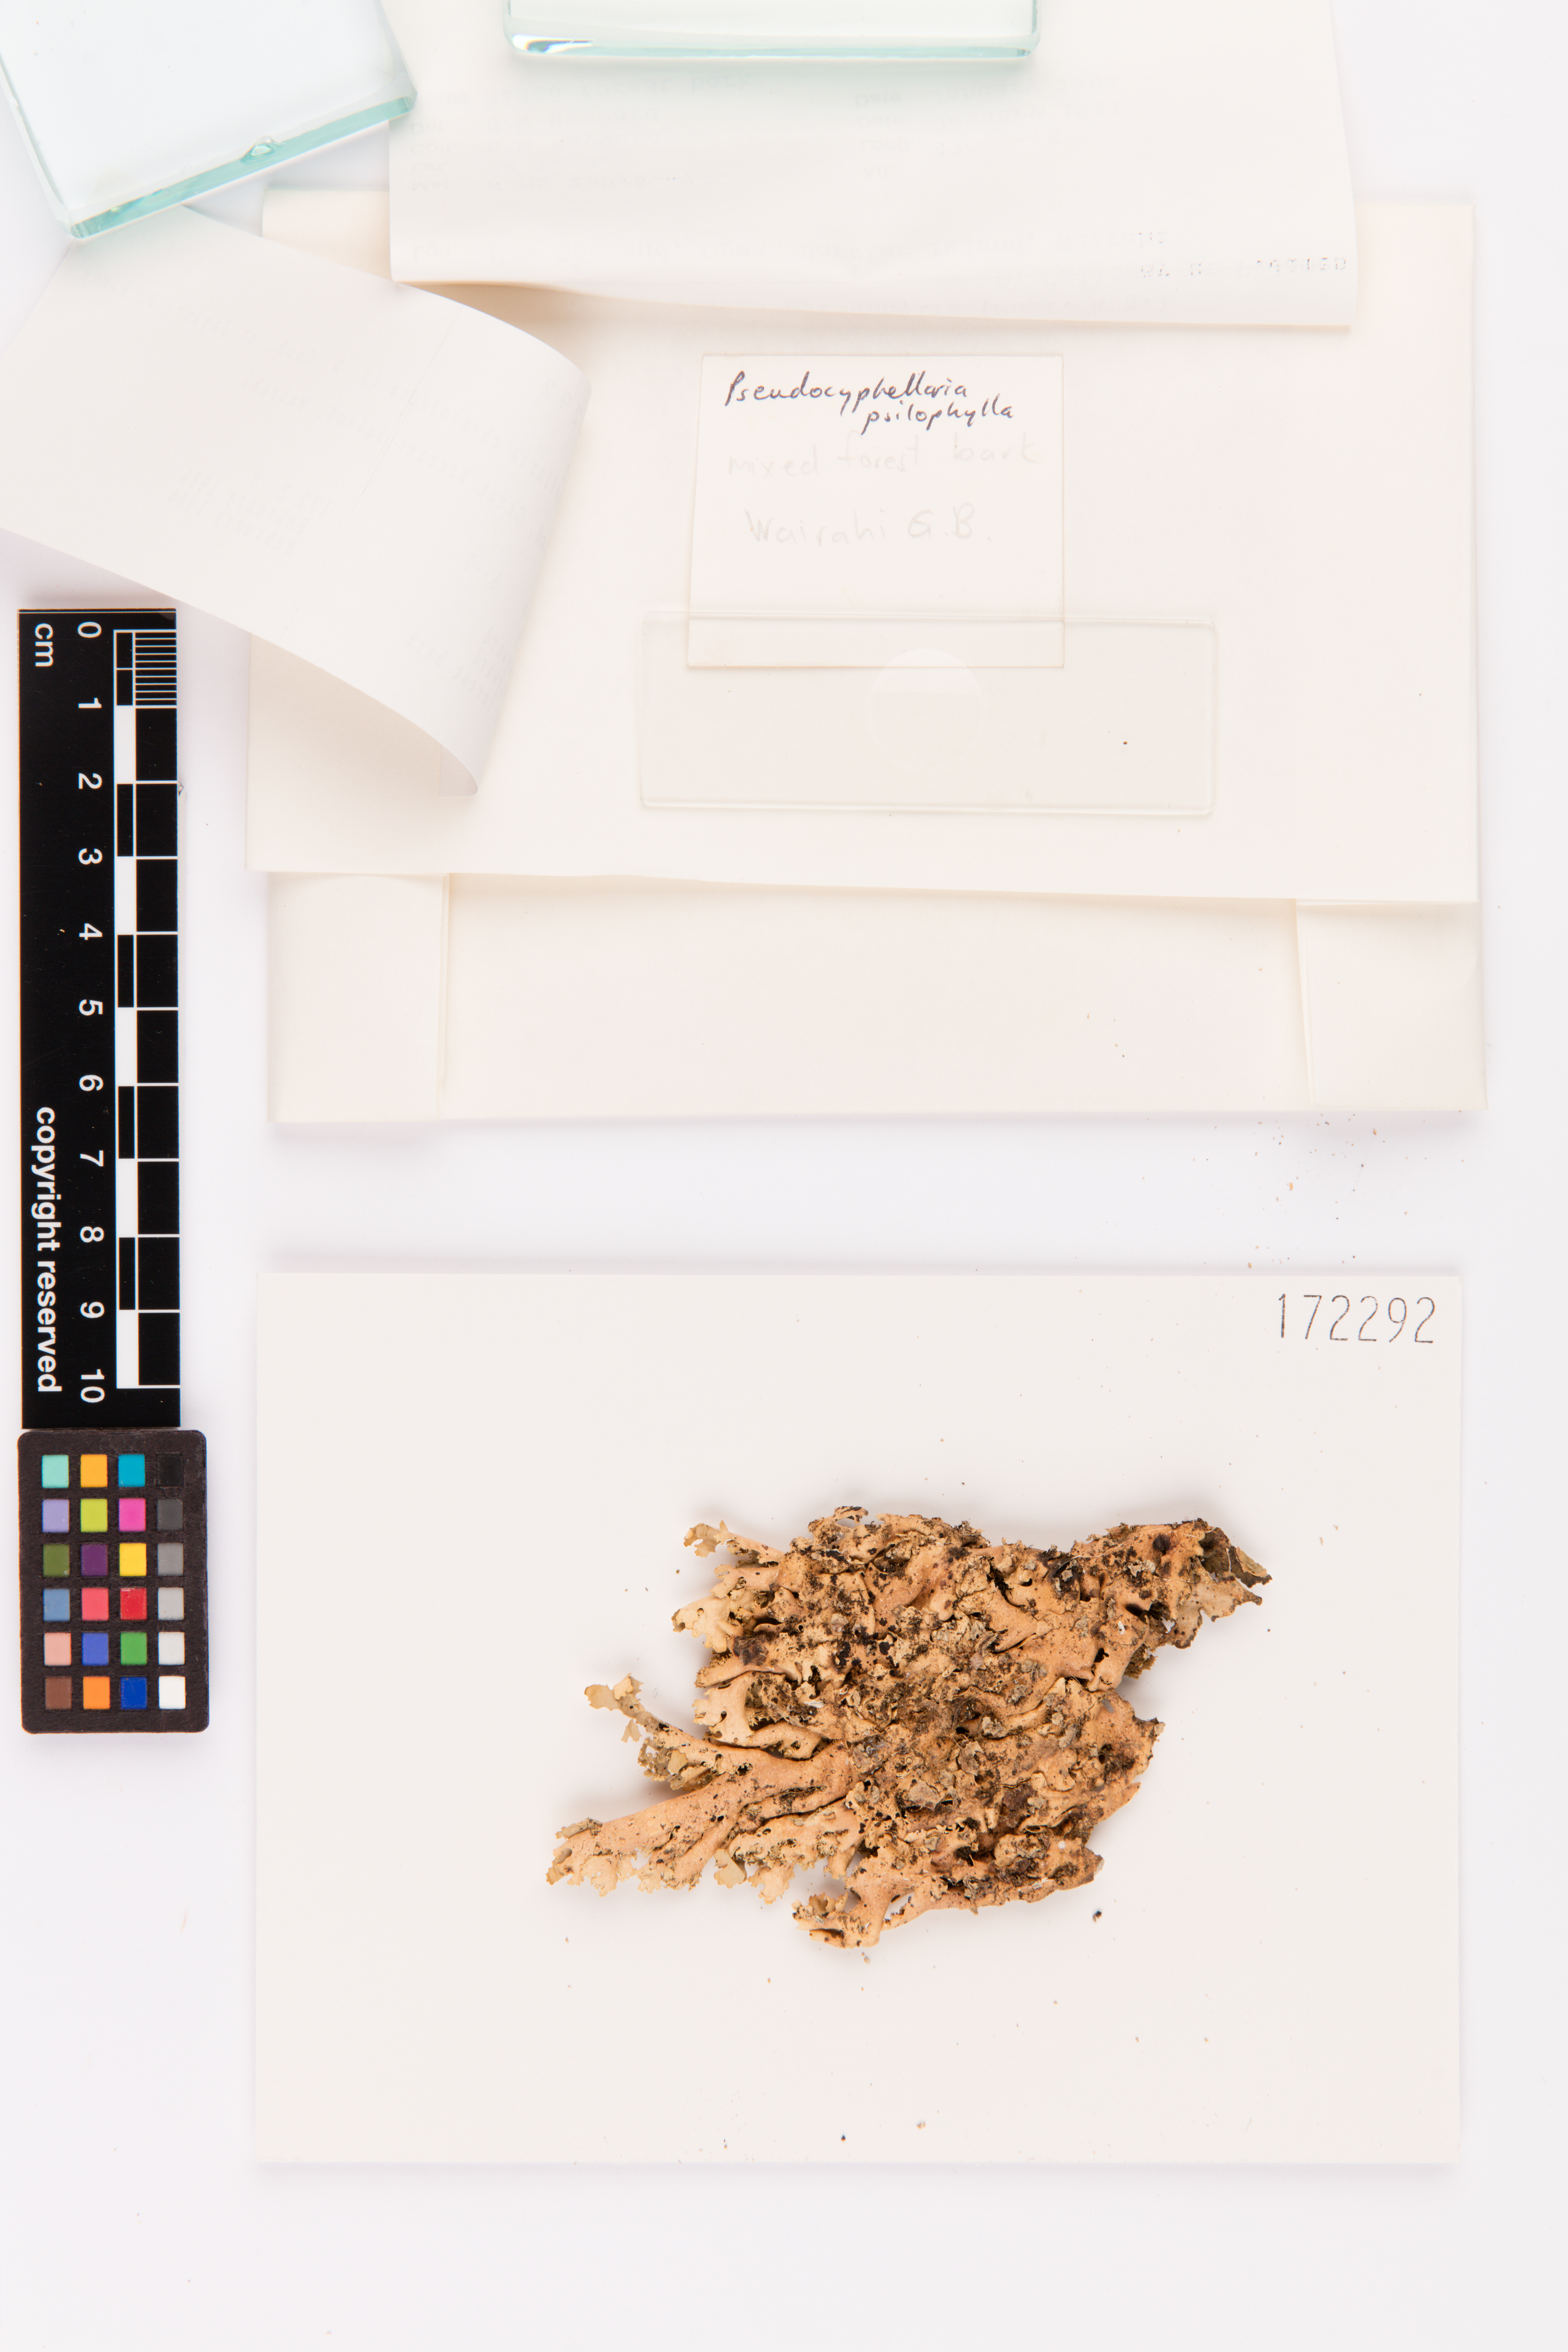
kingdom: Fungi
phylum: Ascomycota
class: Lecanoromycetes
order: Peltigerales
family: Lobariaceae
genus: Pseudocyphellaria
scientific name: Pseudocyphellaria chloroleuca
